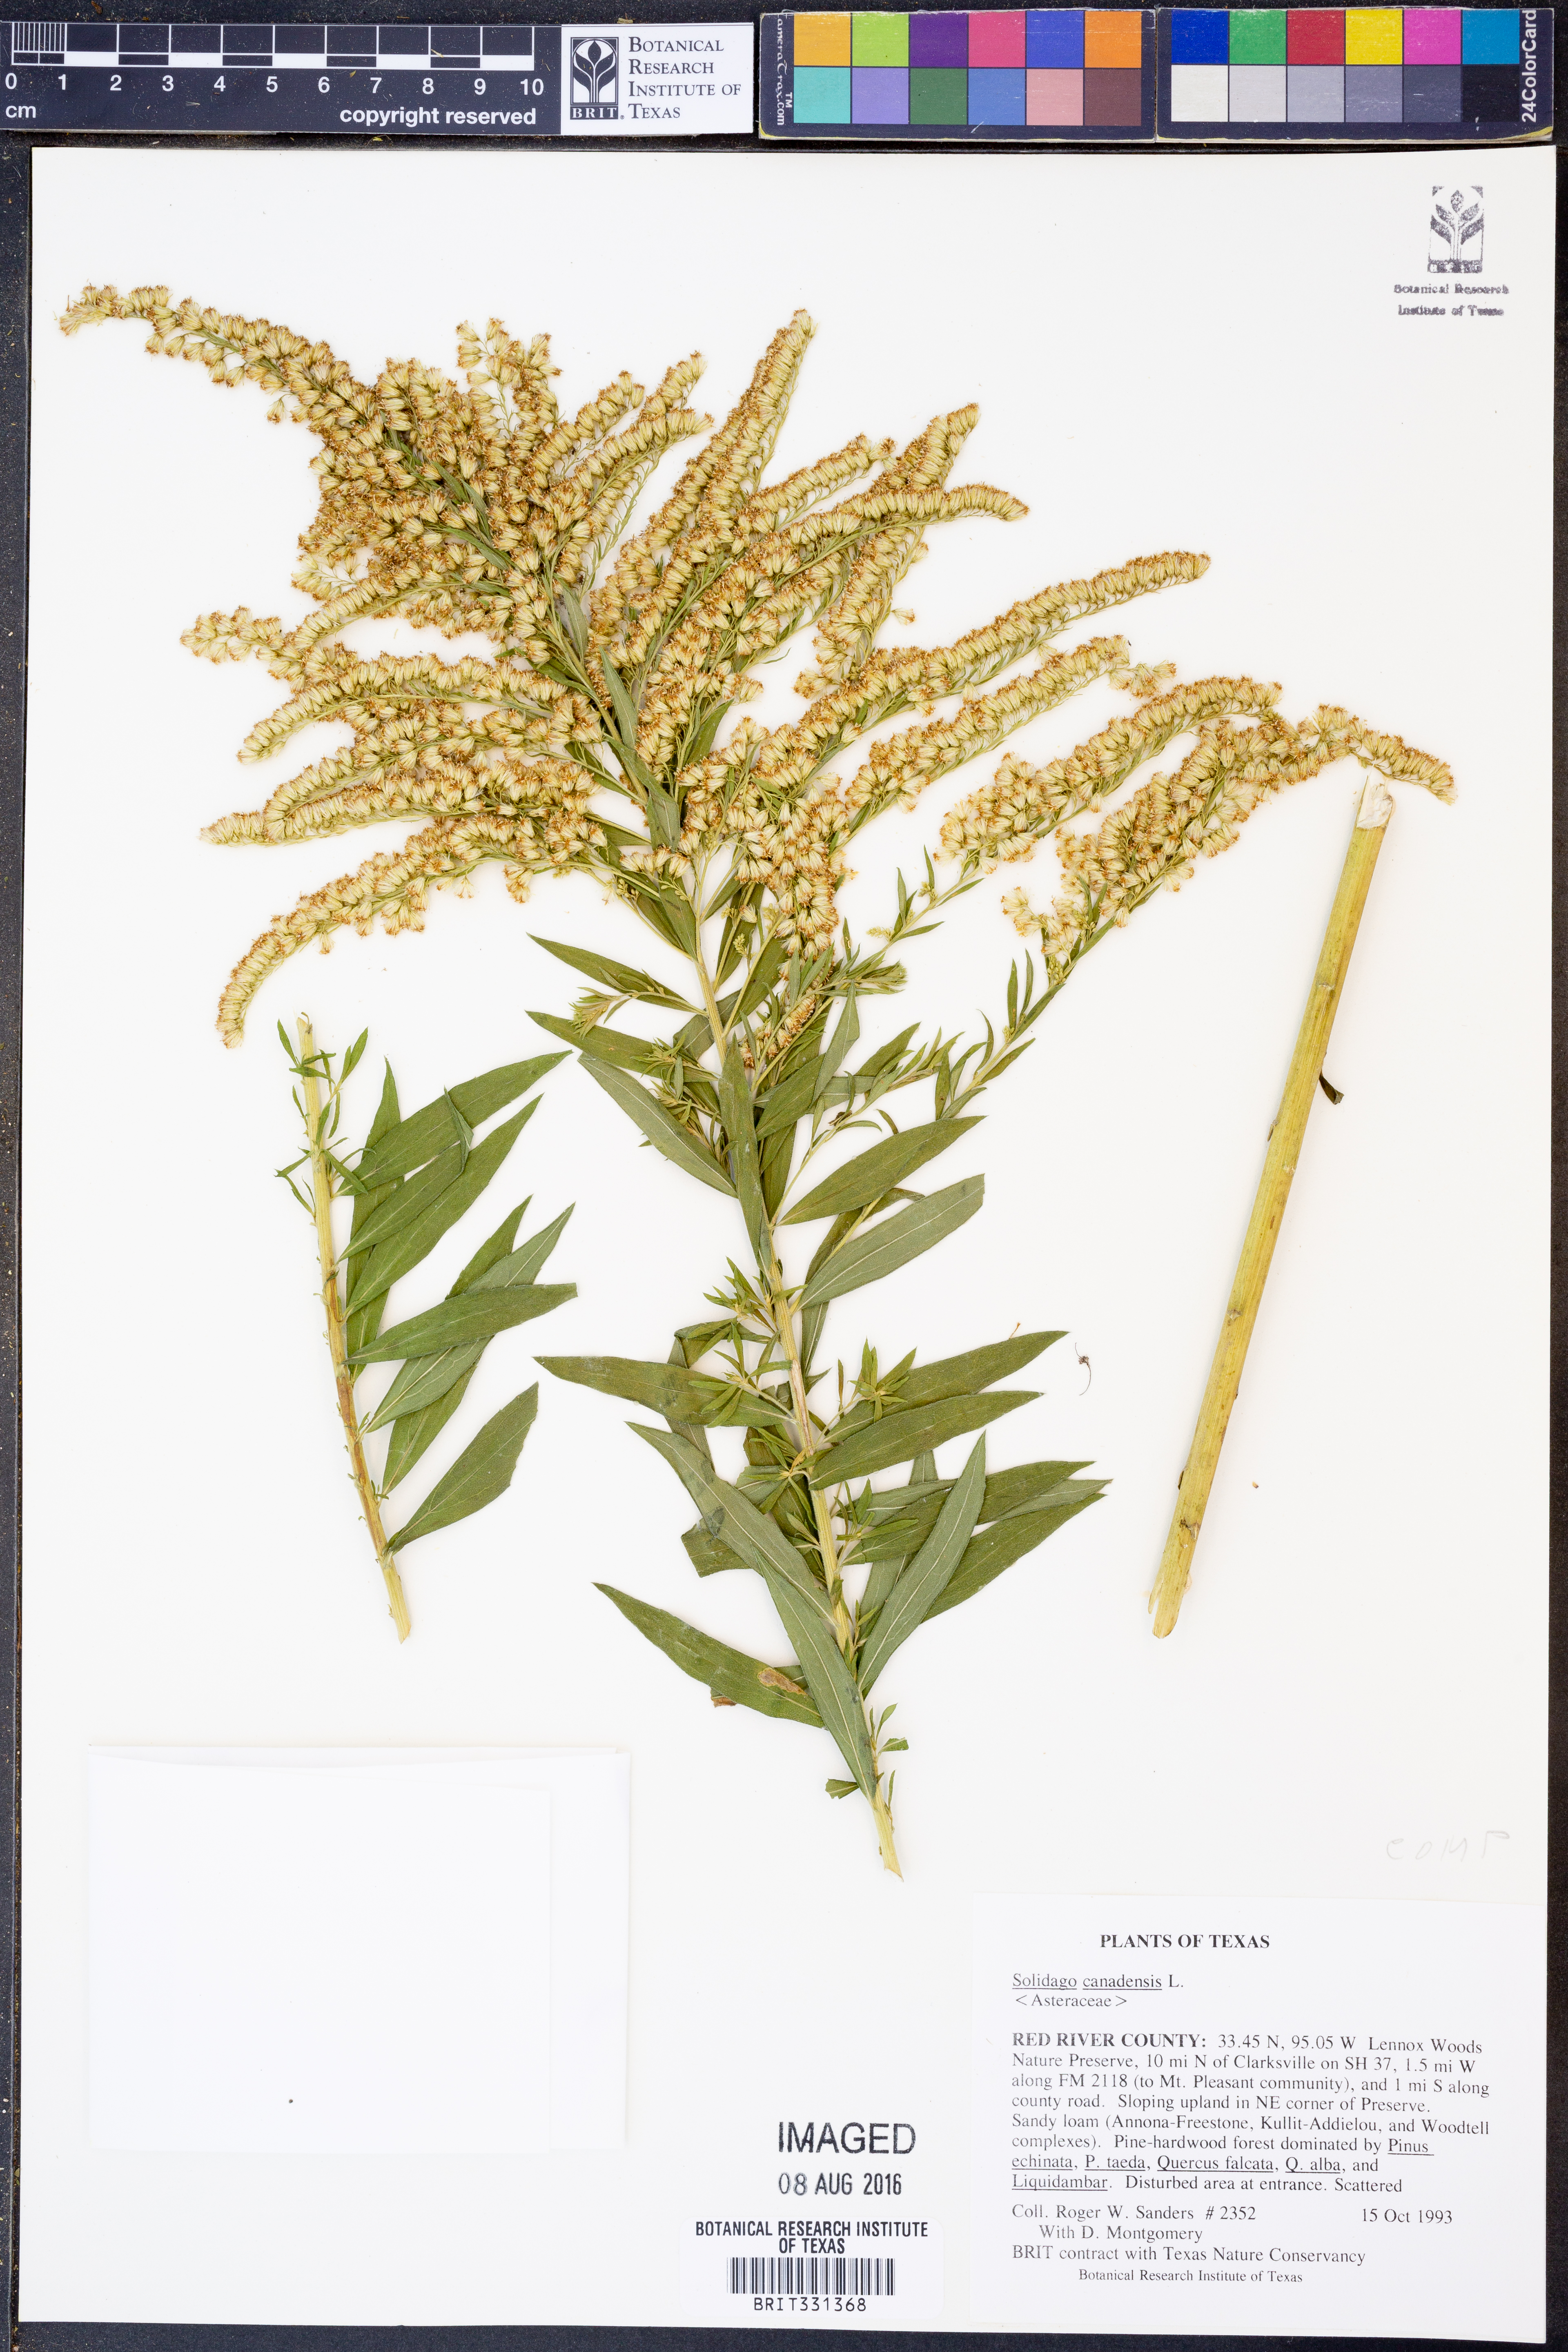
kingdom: Plantae
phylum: Tracheophyta
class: Magnoliopsida
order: Asterales
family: Asteraceae
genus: Solidago
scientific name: Solidago canadensis
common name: Canada goldenrod
